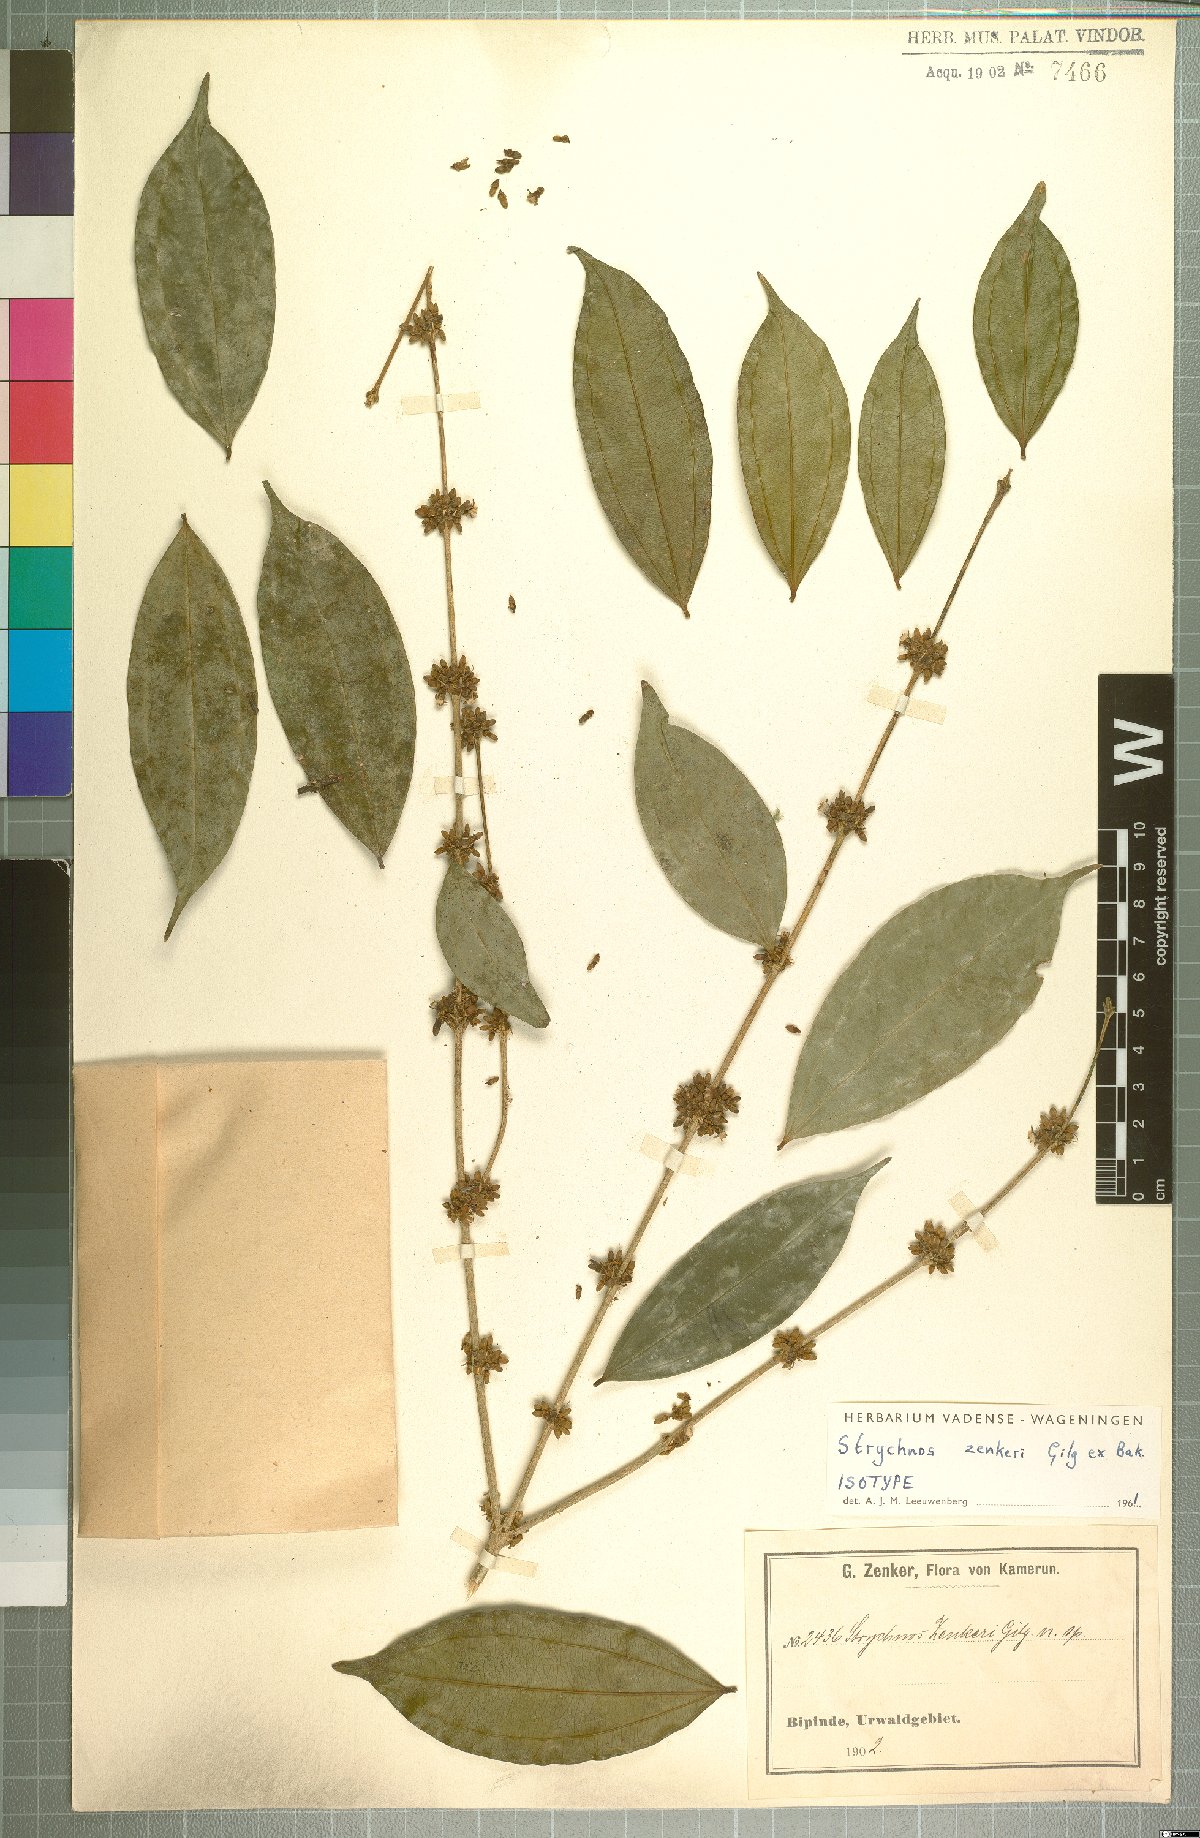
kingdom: Plantae
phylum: Tracheophyta
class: Magnoliopsida
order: Gentianales
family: Loganiaceae
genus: Strychnos
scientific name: Strychnos zenkeri
